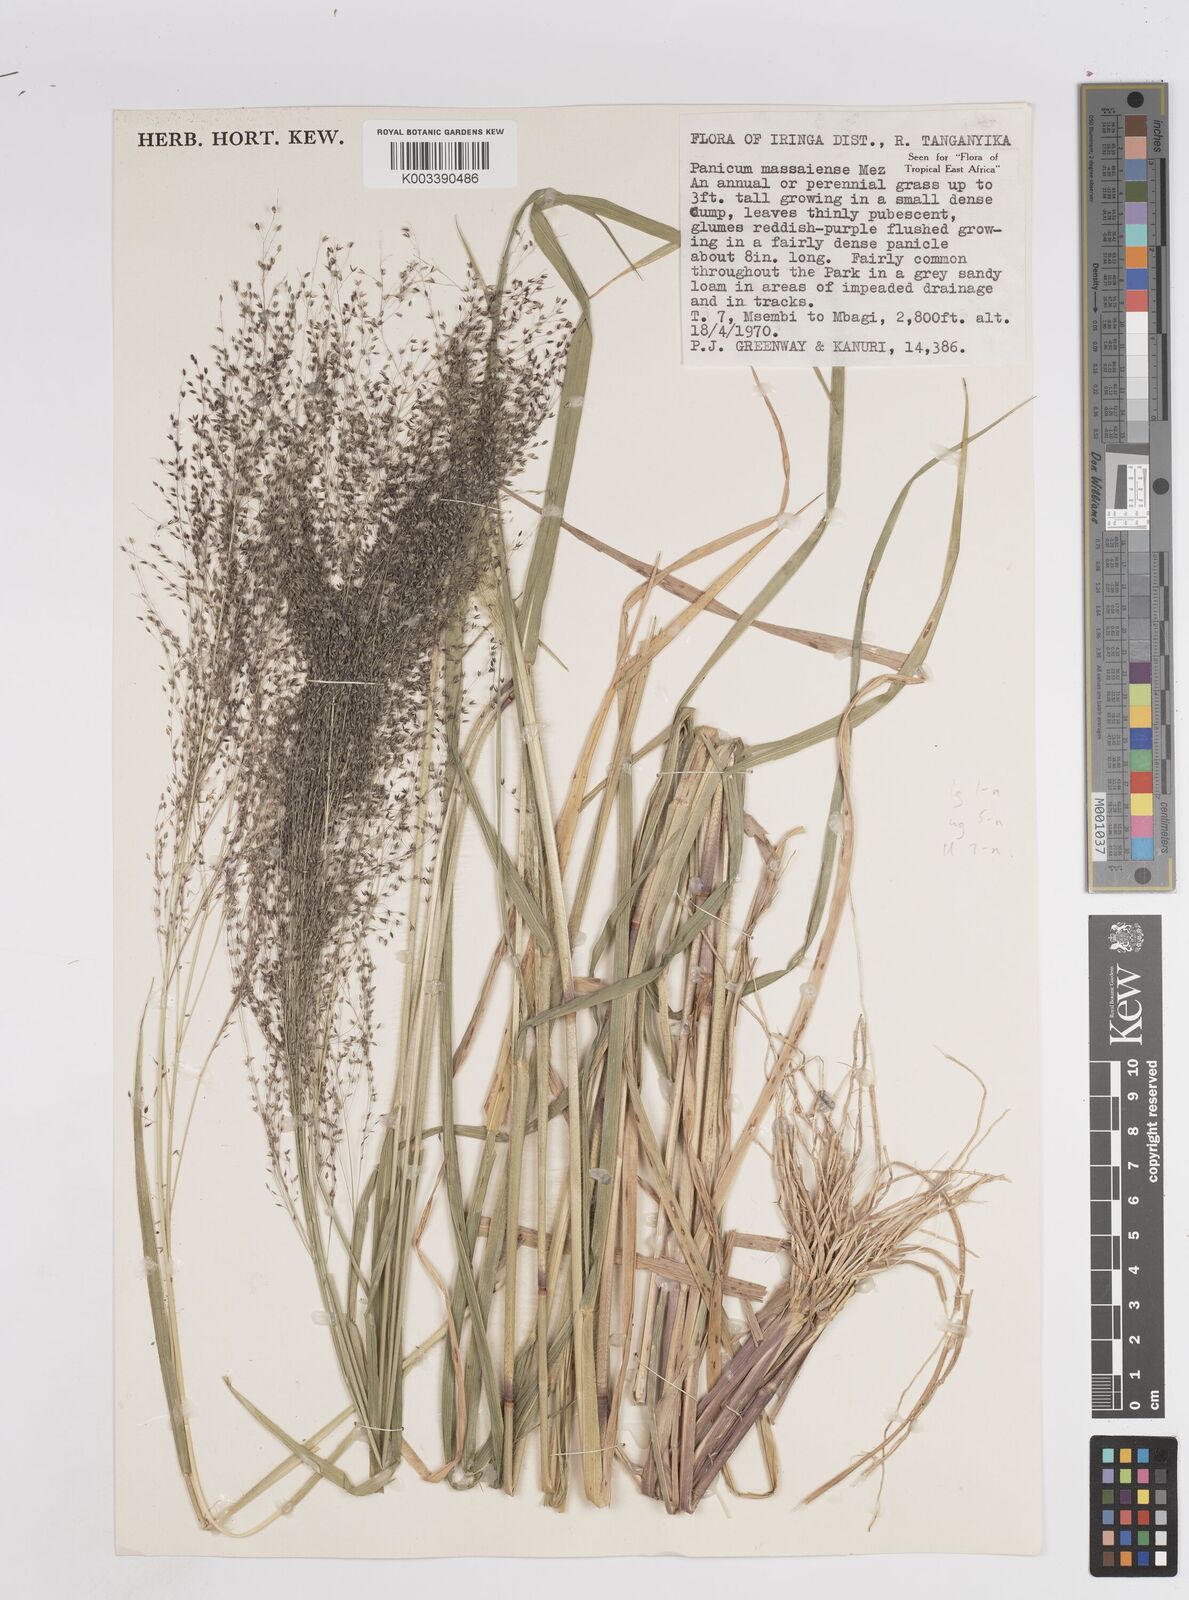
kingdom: Plantae
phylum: Tracheophyta
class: Liliopsida
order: Poales
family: Poaceae
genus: Panicum
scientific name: Panicum massaiense
